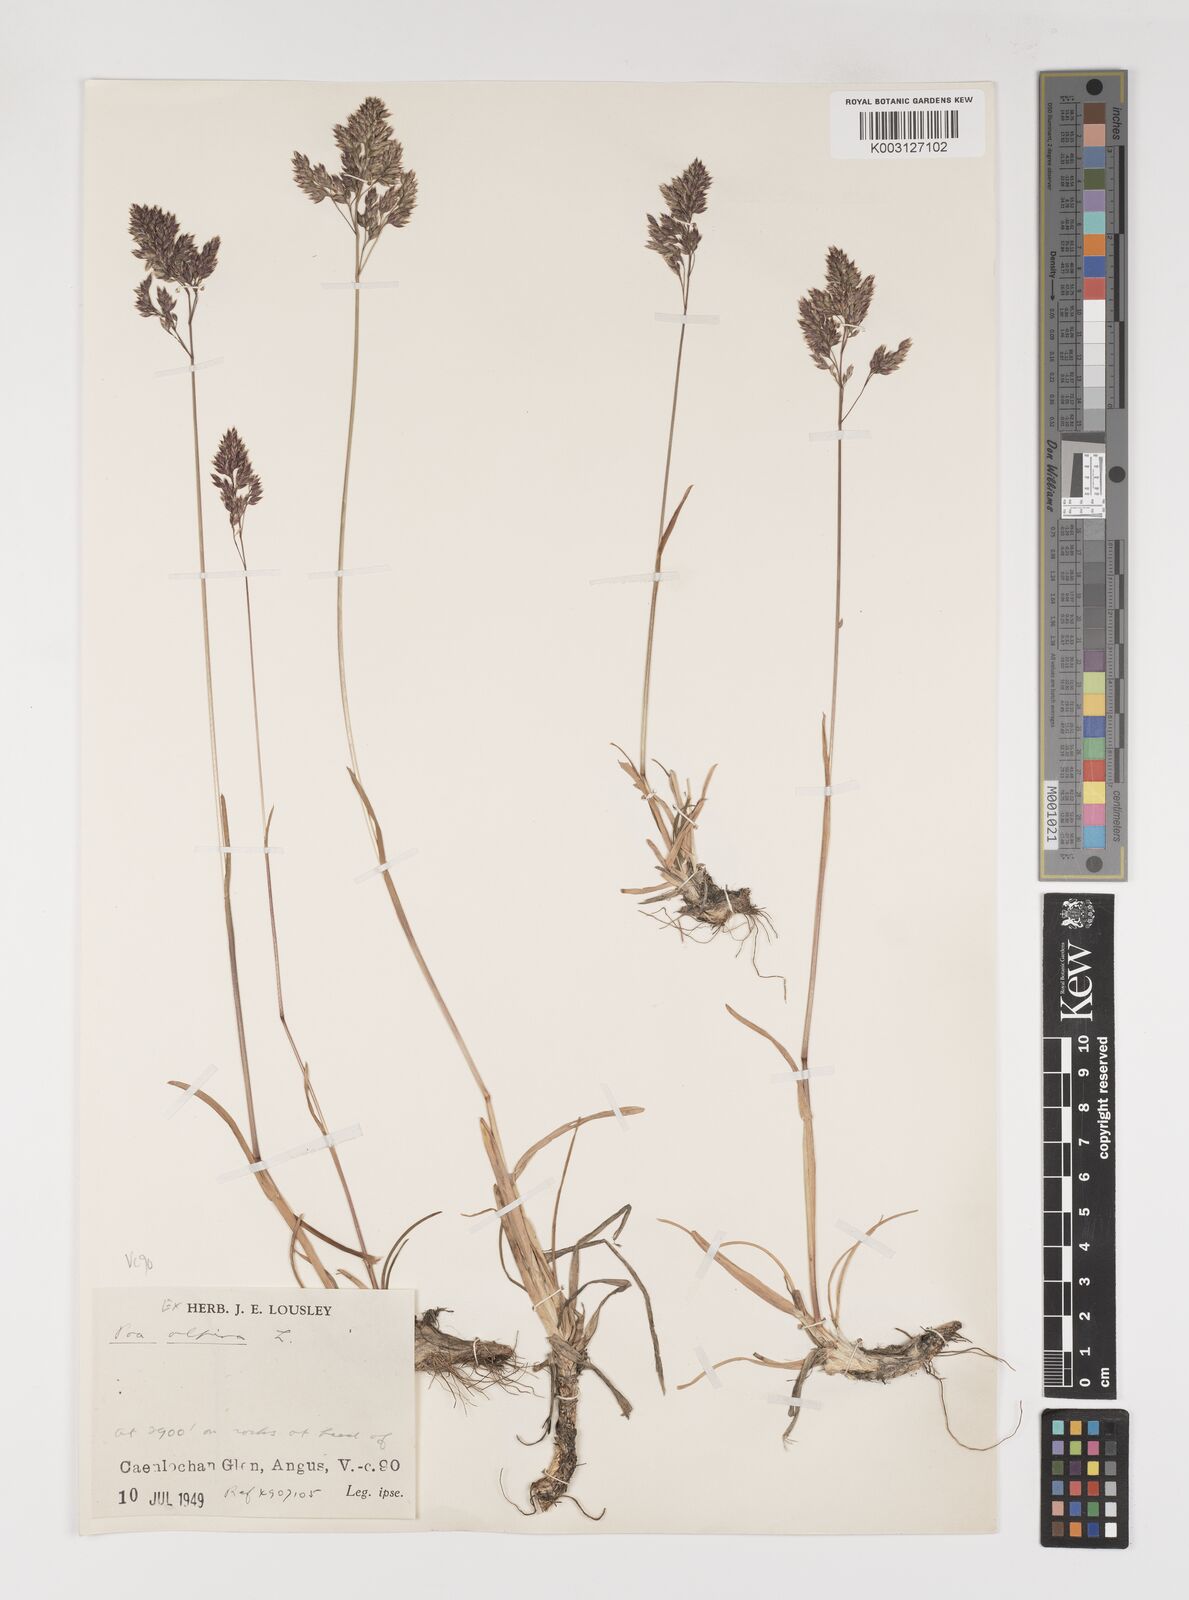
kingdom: Plantae
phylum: Tracheophyta
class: Liliopsida
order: Poales
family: Poaceae
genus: Poa
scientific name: Poa alpina
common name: Alpine bluegrass
